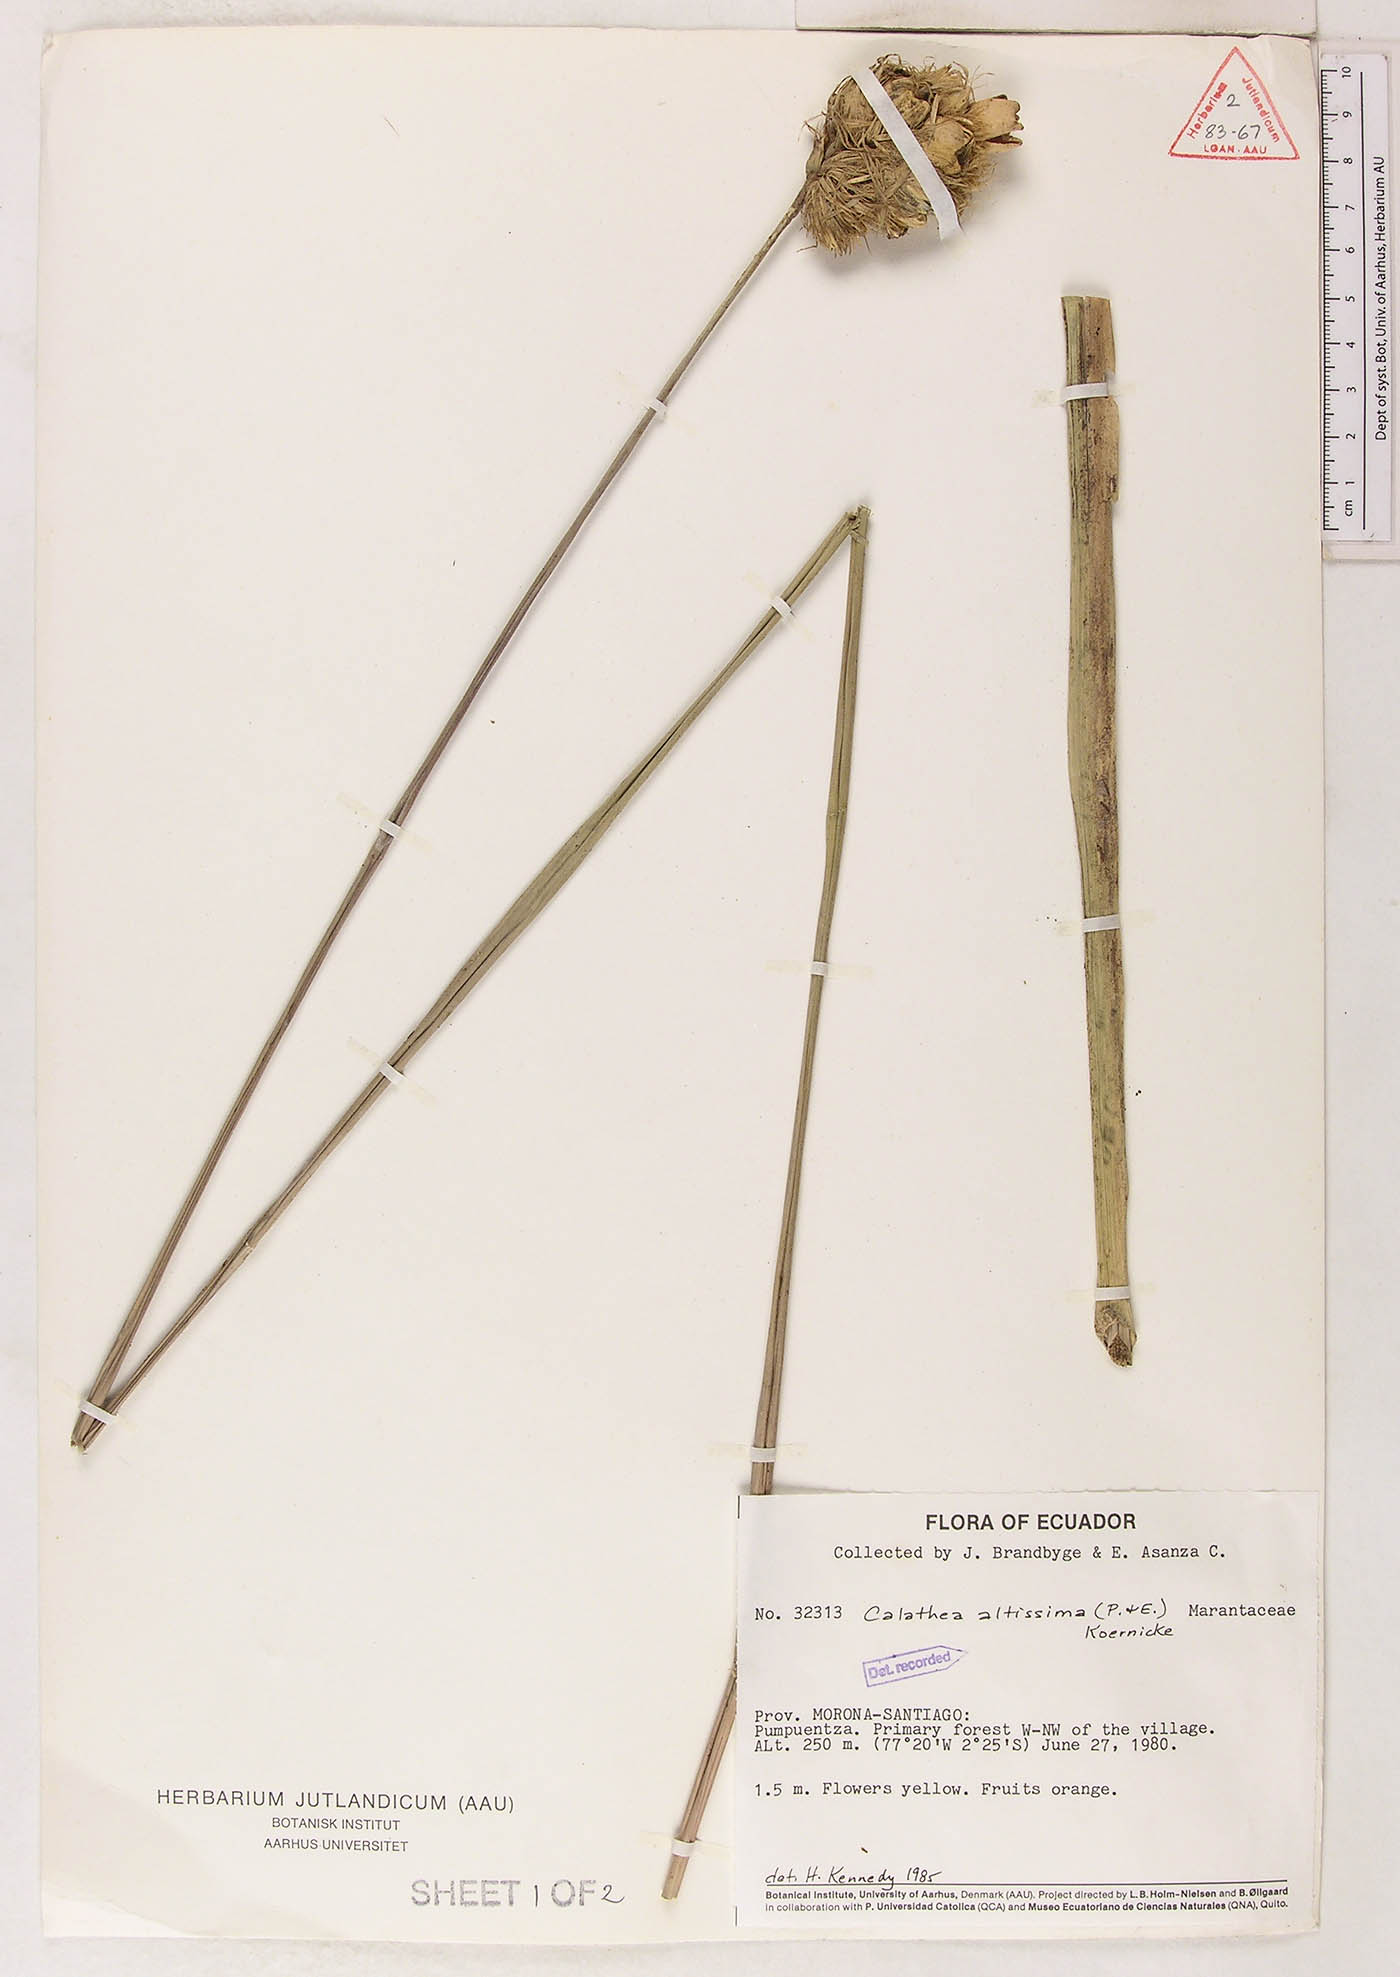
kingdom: Plantae
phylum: Tracheophyta
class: Liliopsida
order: Zingiberales
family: Marantaceae
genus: Goeppertia
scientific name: Goeppertia altissima
